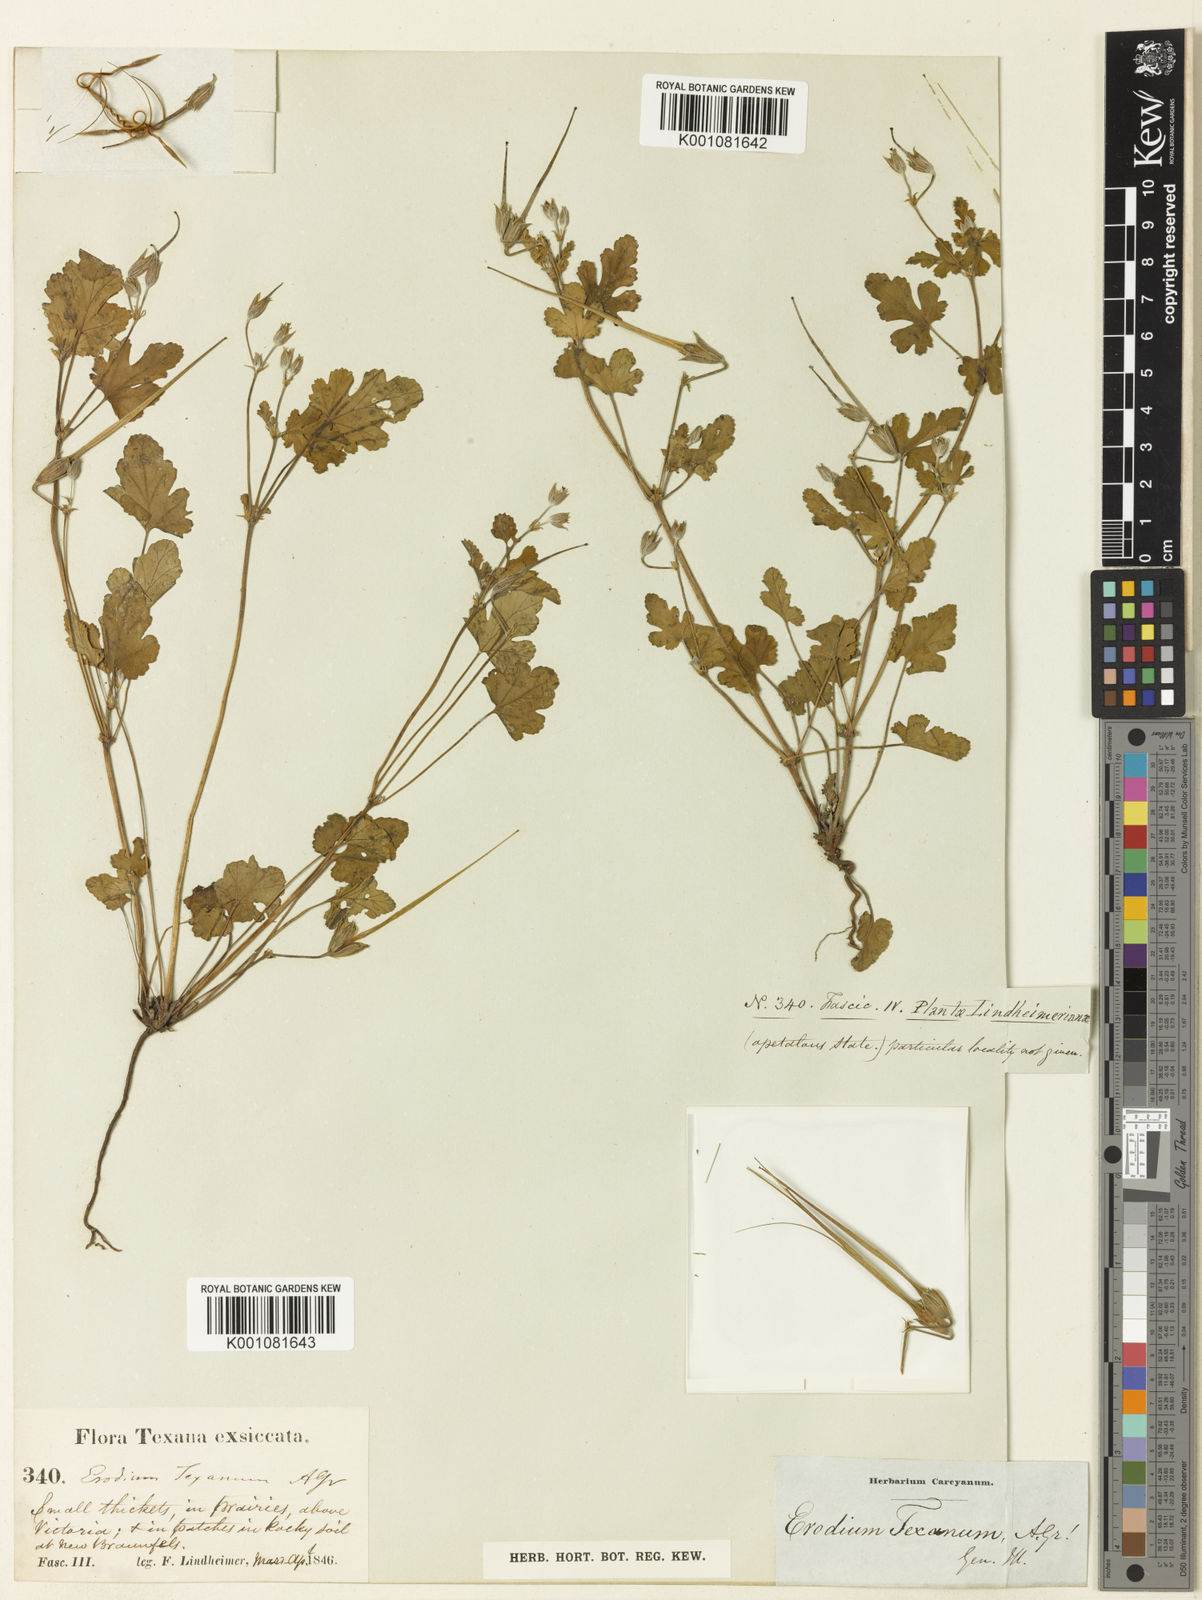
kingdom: Plantae
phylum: Tracheophyta
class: Magnoliopsida
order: Geraniales
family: Geraniaceae
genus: Erodium
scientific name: Erodium texanum
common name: Texas stork's-bill
